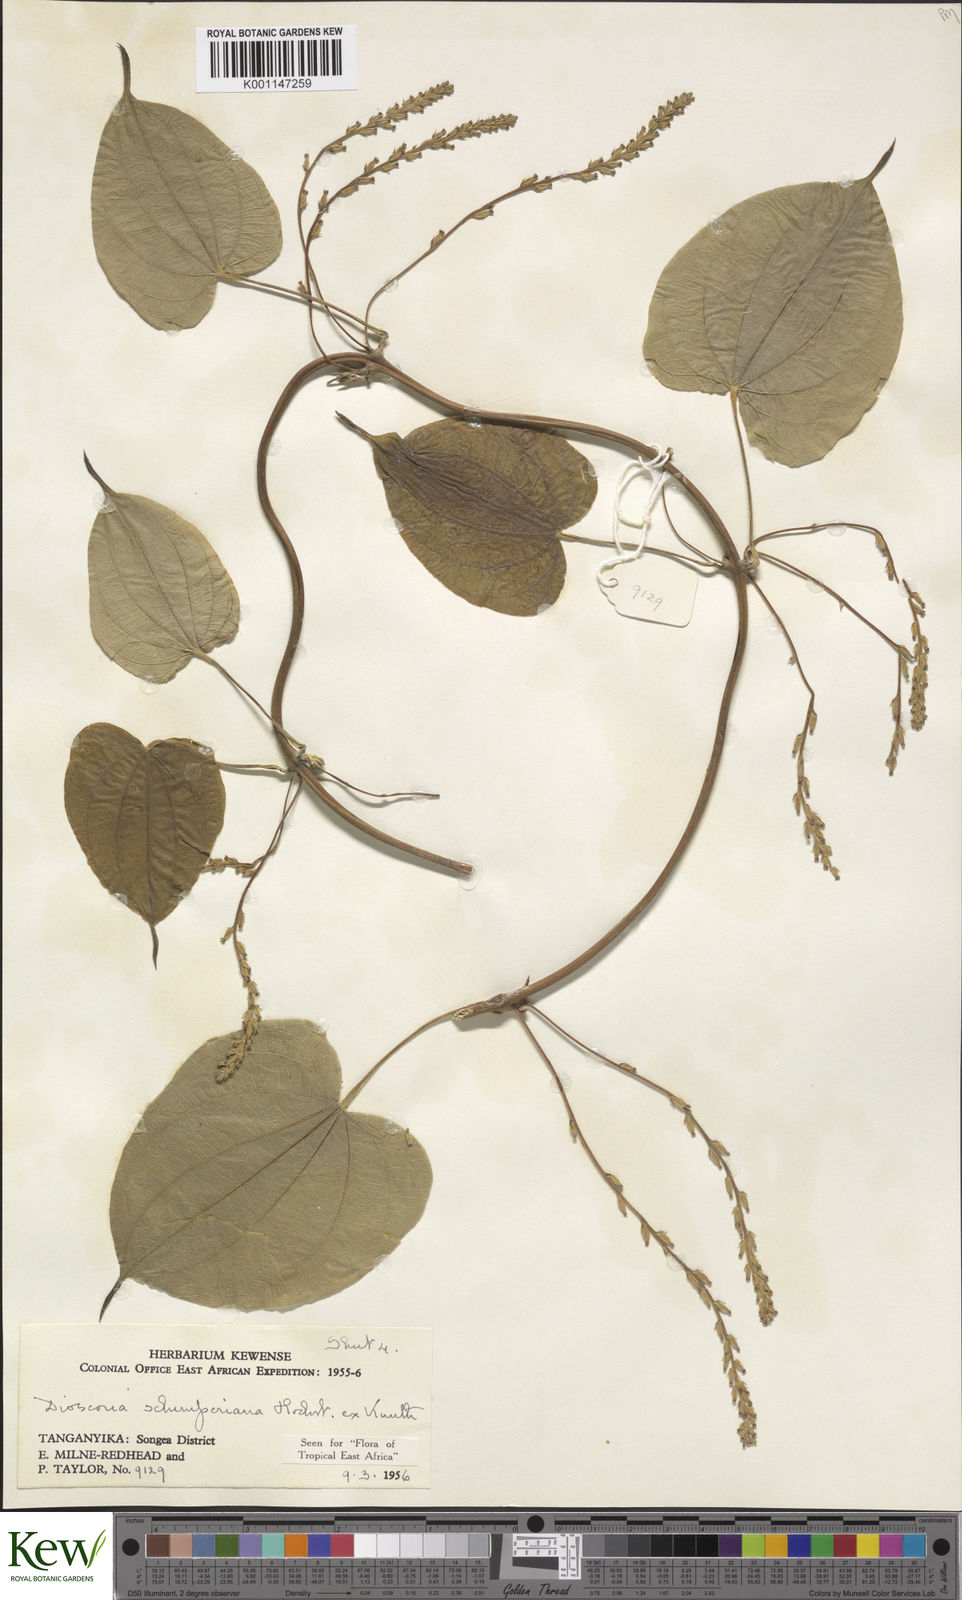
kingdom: Plantae
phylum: Tracheophyta
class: Liliopsida
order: Dioscoreales
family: Dioscoreaceae
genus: Dioscorea
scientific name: Dioscorea schimperiana
